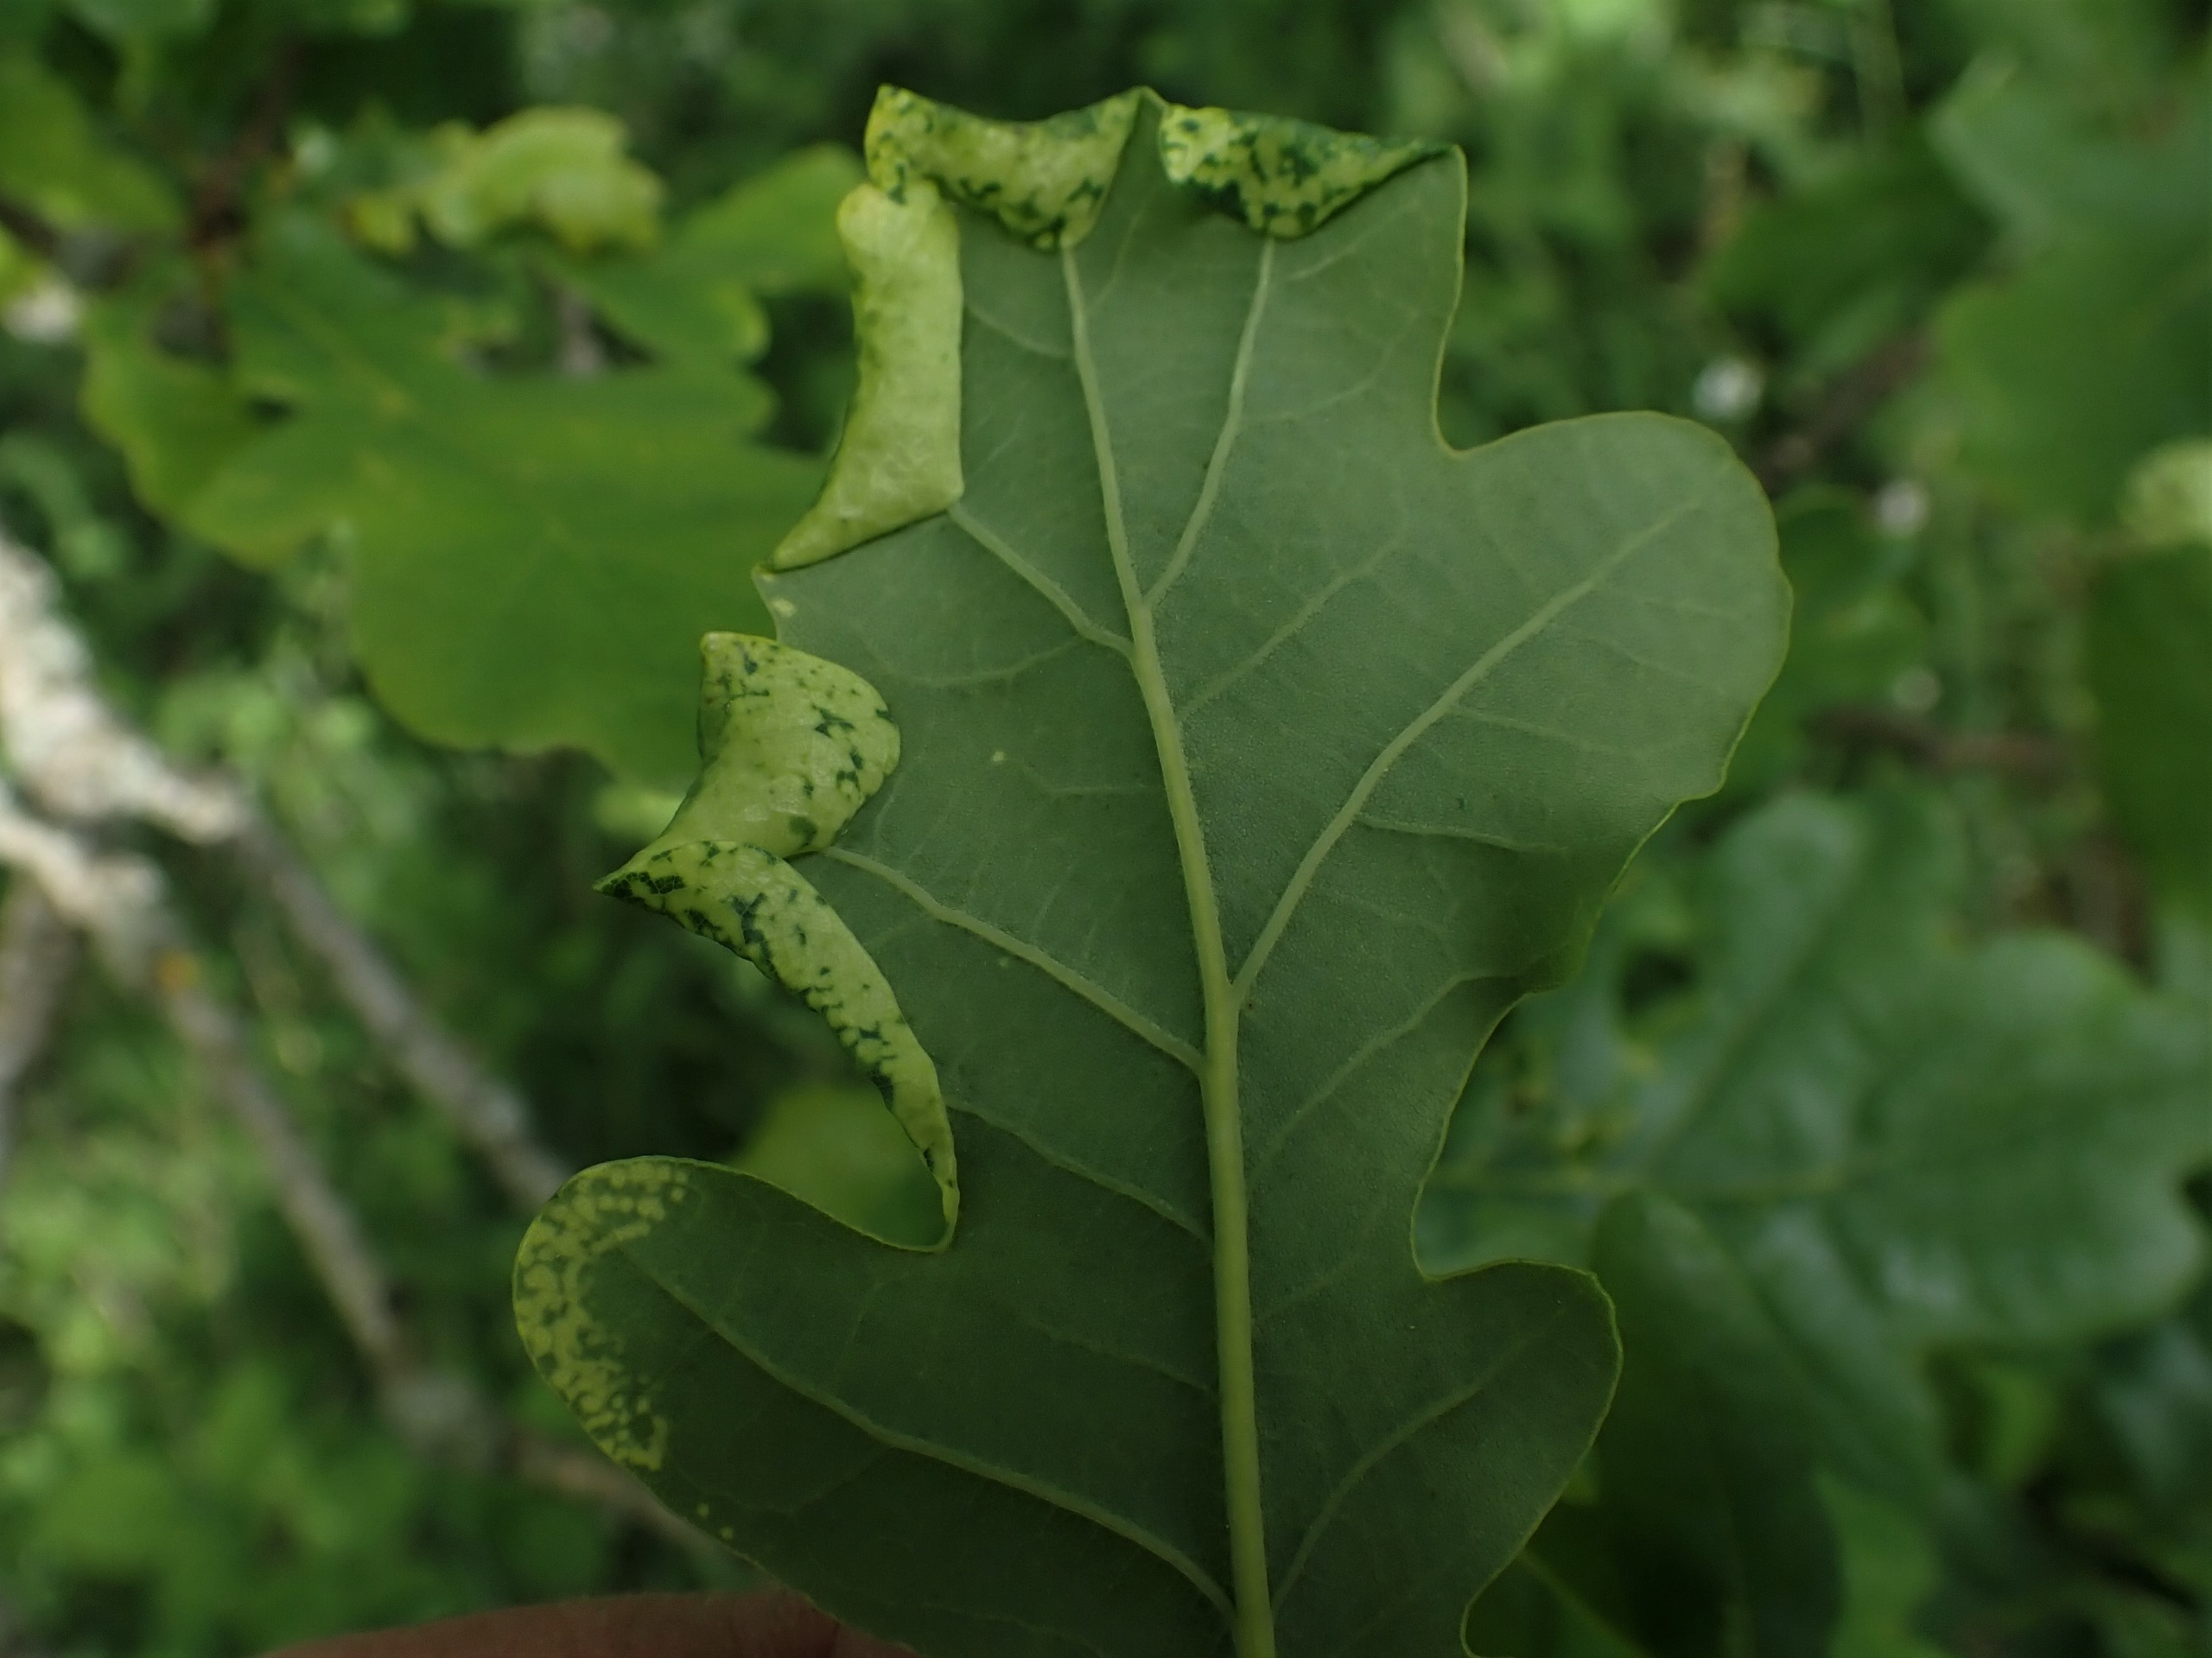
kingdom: Animalia
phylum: Arthropoda
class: Insecta
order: Diptera
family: Cecidomyiidae
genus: Macrodiplosis
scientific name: Macrodiplosis pustularis
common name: Marmorgalmyg
